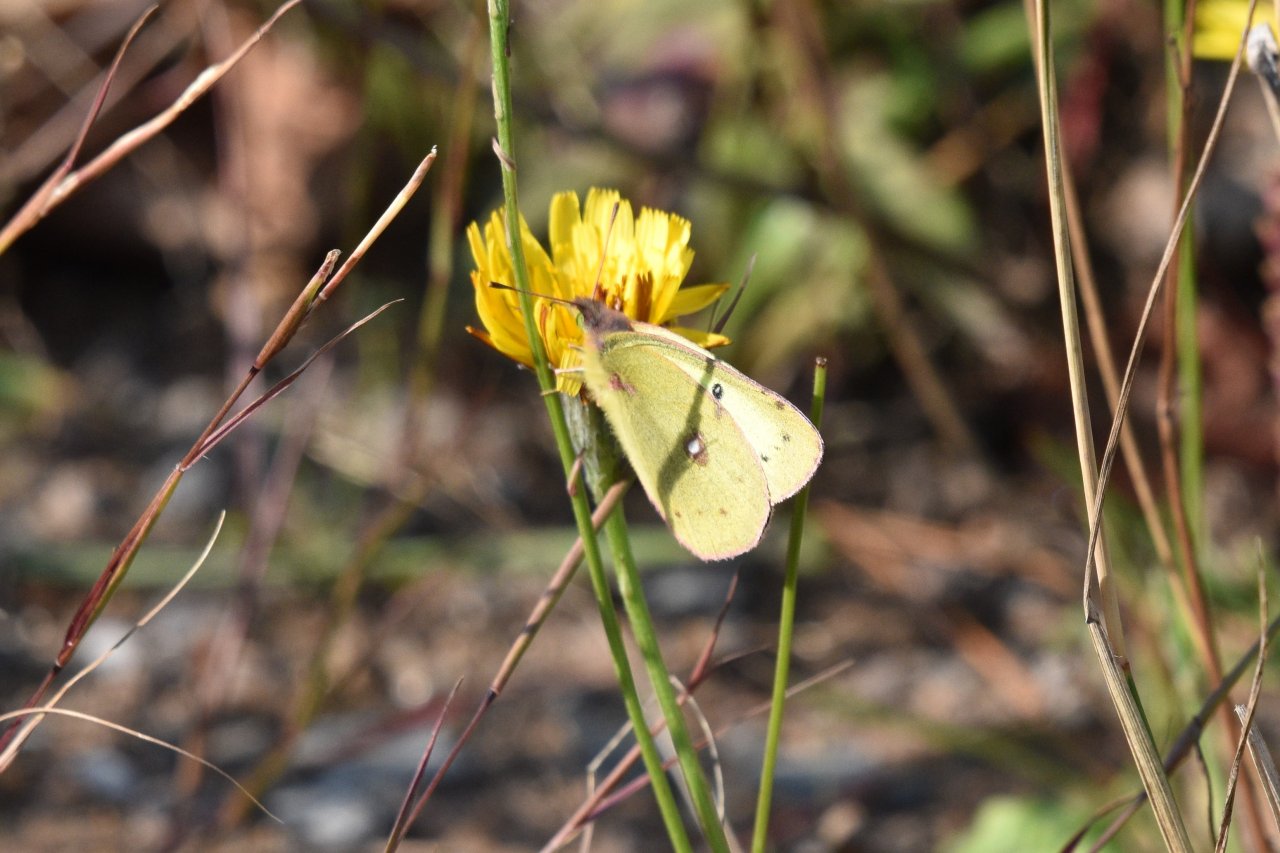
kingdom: Animalia
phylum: Arthropoda
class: Insecta
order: Lepidoptera
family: Pieridae
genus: Colias
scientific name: Colias philodice
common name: Clouded Sulphur
